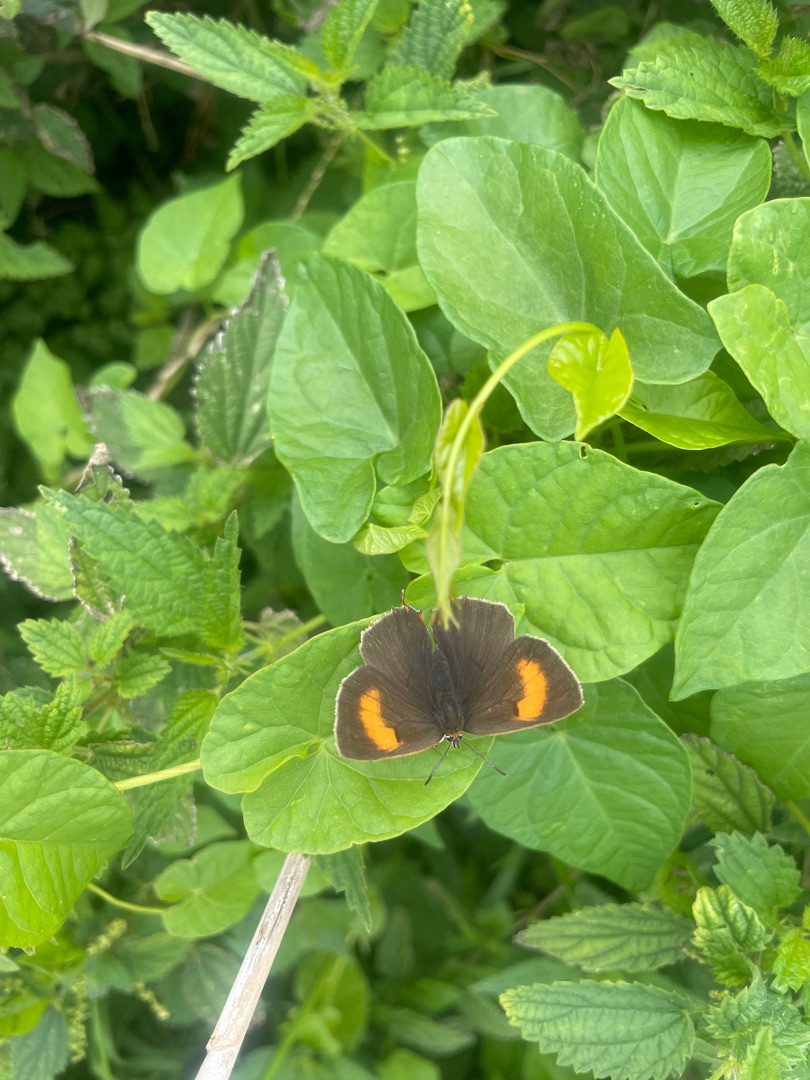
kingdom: Animalia
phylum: Arthropoda
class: Insecta
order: Lepidoptera
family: Lycaenidae
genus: Thecla
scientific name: Thecla betulae
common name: Guldhale
